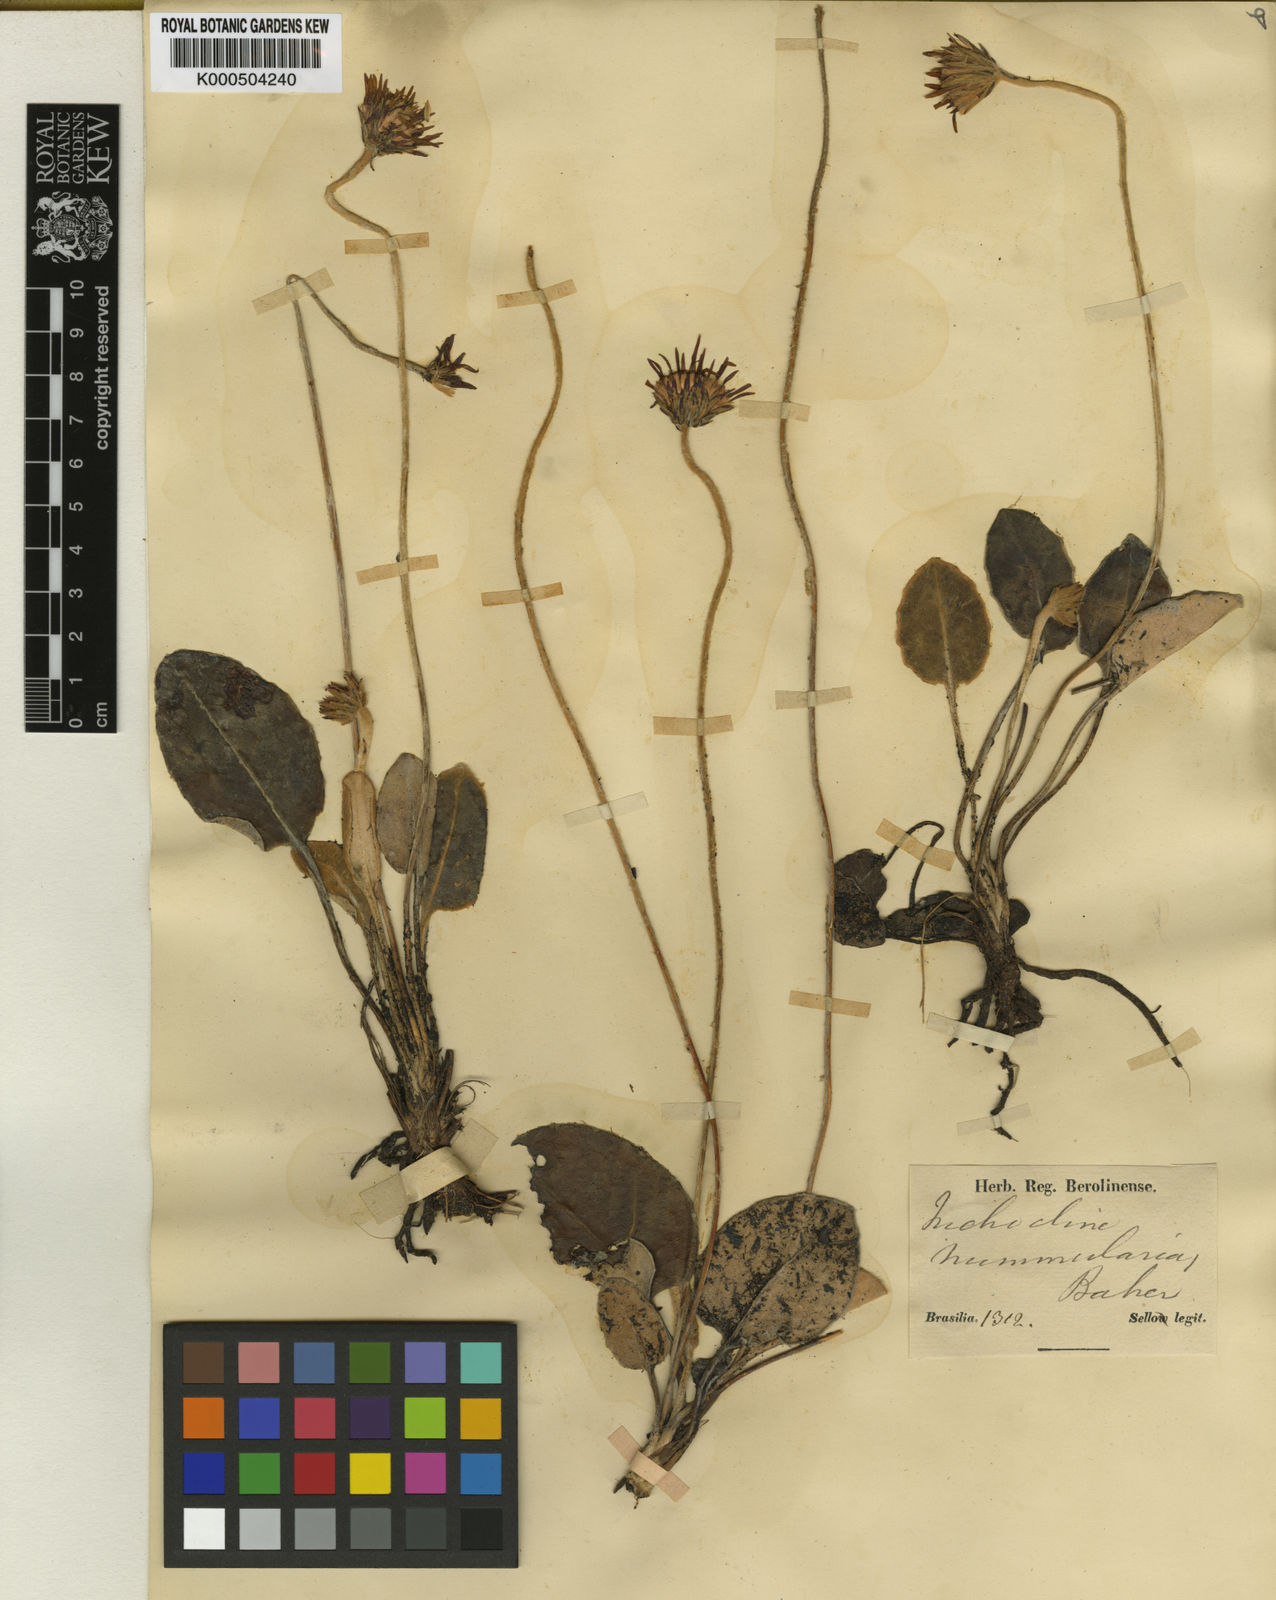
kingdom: Plantae
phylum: Tracheophyta
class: Magnoliopsida
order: Asterales
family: Asteraceae
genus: Chaptalia
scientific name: Chaptalia
